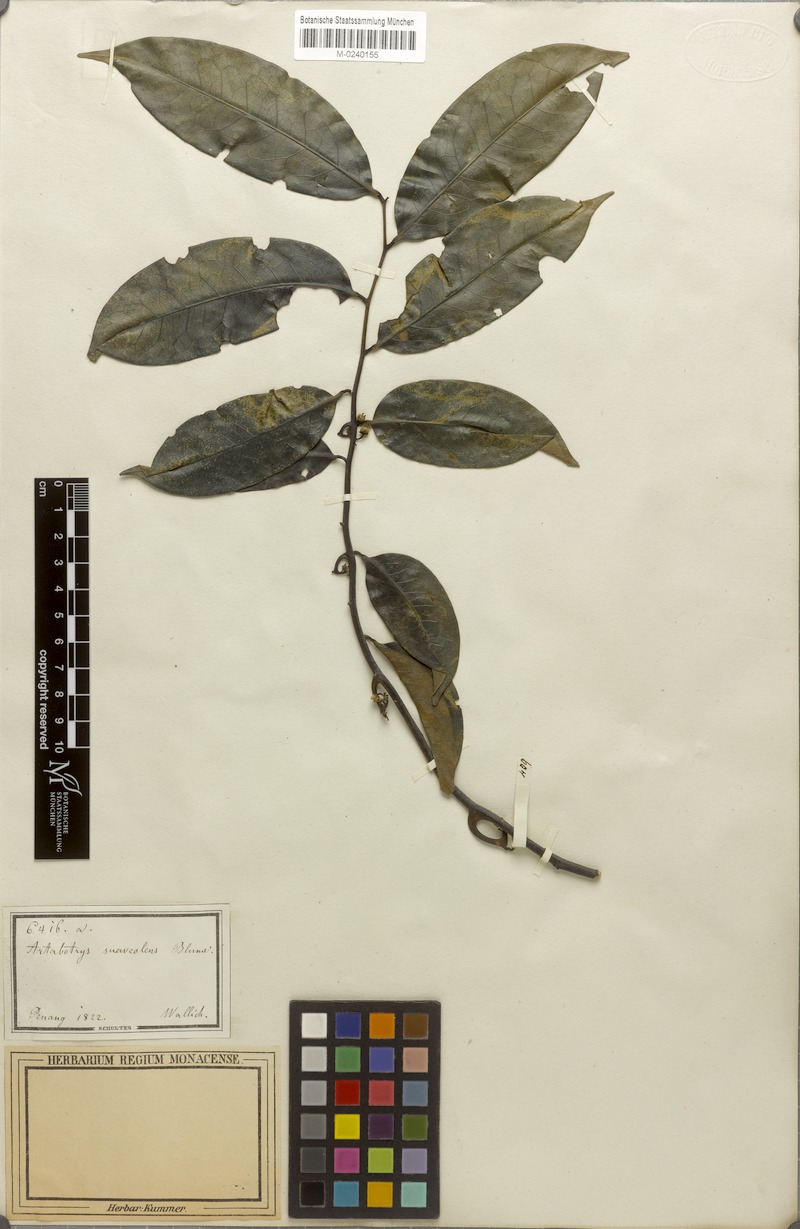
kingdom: Plantae
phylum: Tracheophyta
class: Magnoliopsida
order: Magnoliales
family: Annonaceae
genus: Artabotrys
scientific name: Artabotrys suaveolens
